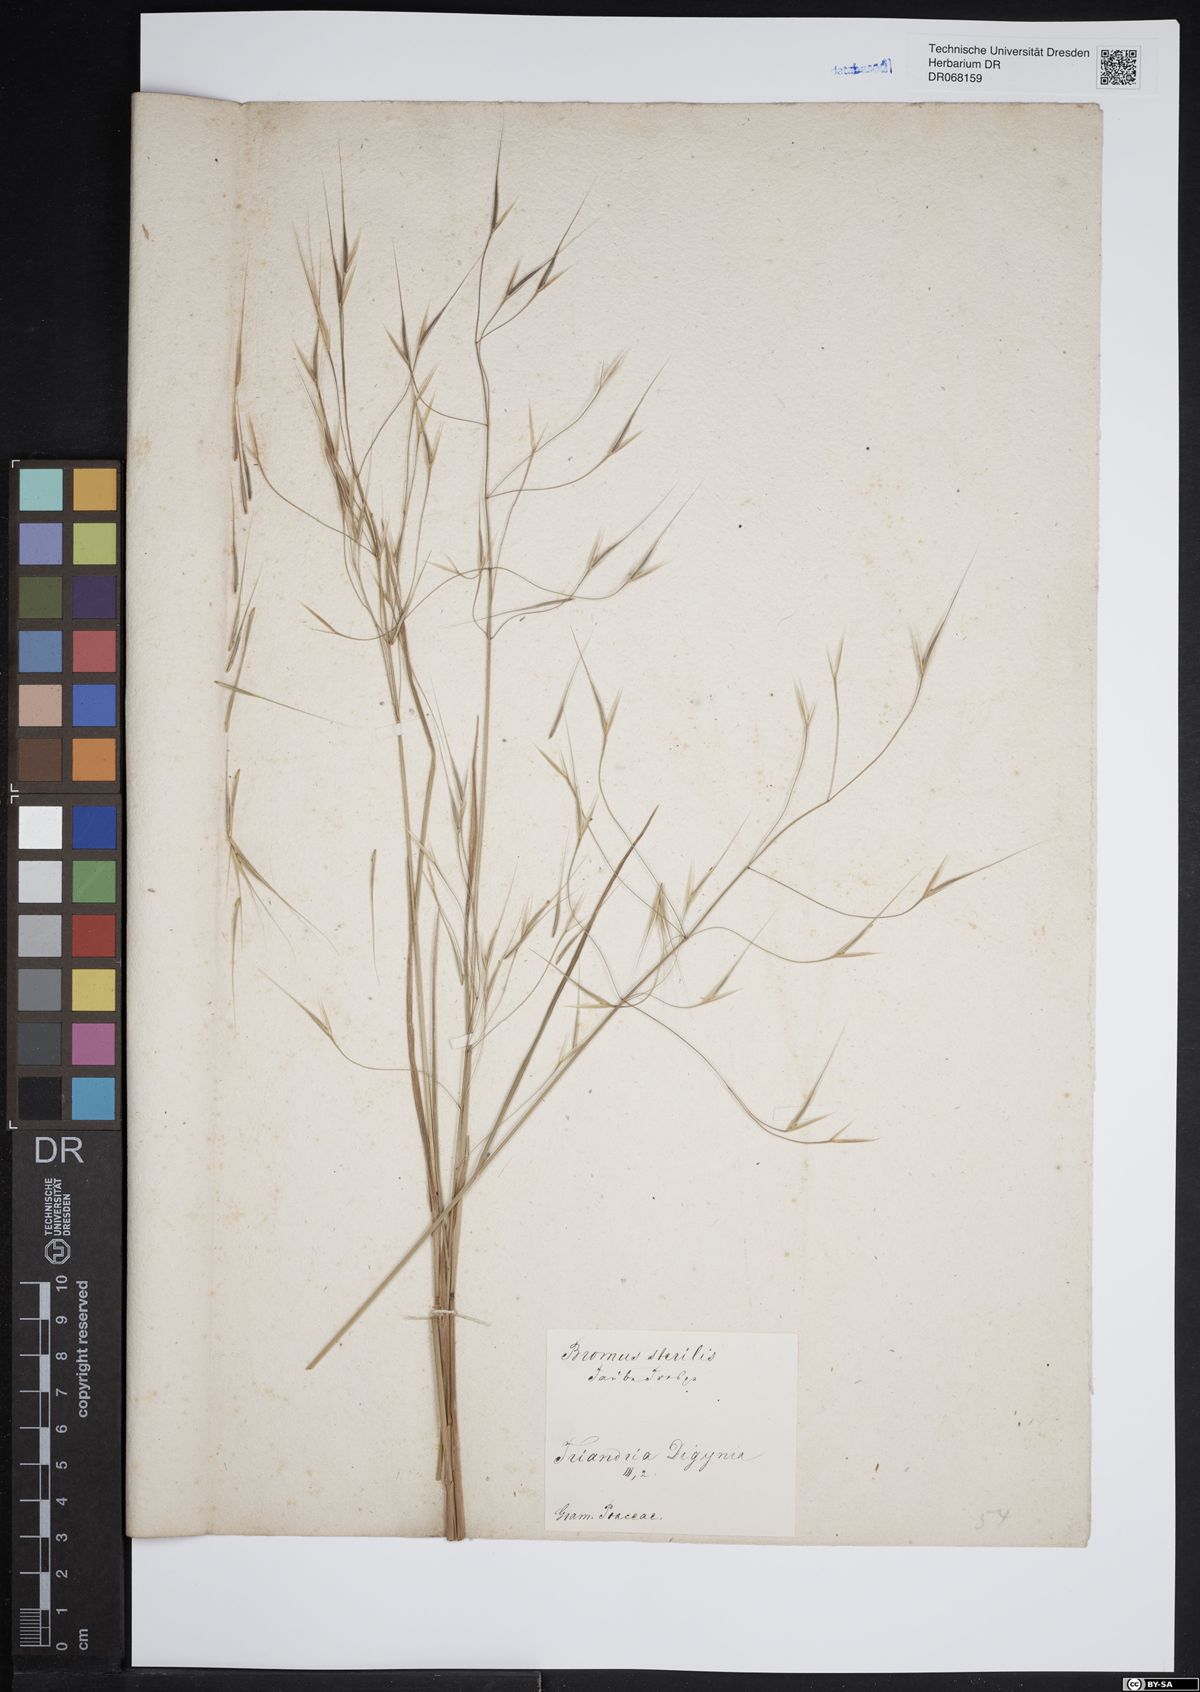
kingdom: Plantae
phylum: Tracheophyta
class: Liliopsida
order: Poales
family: Poaceae
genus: Bromus
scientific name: Bromus sterilis
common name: Poverty brome
